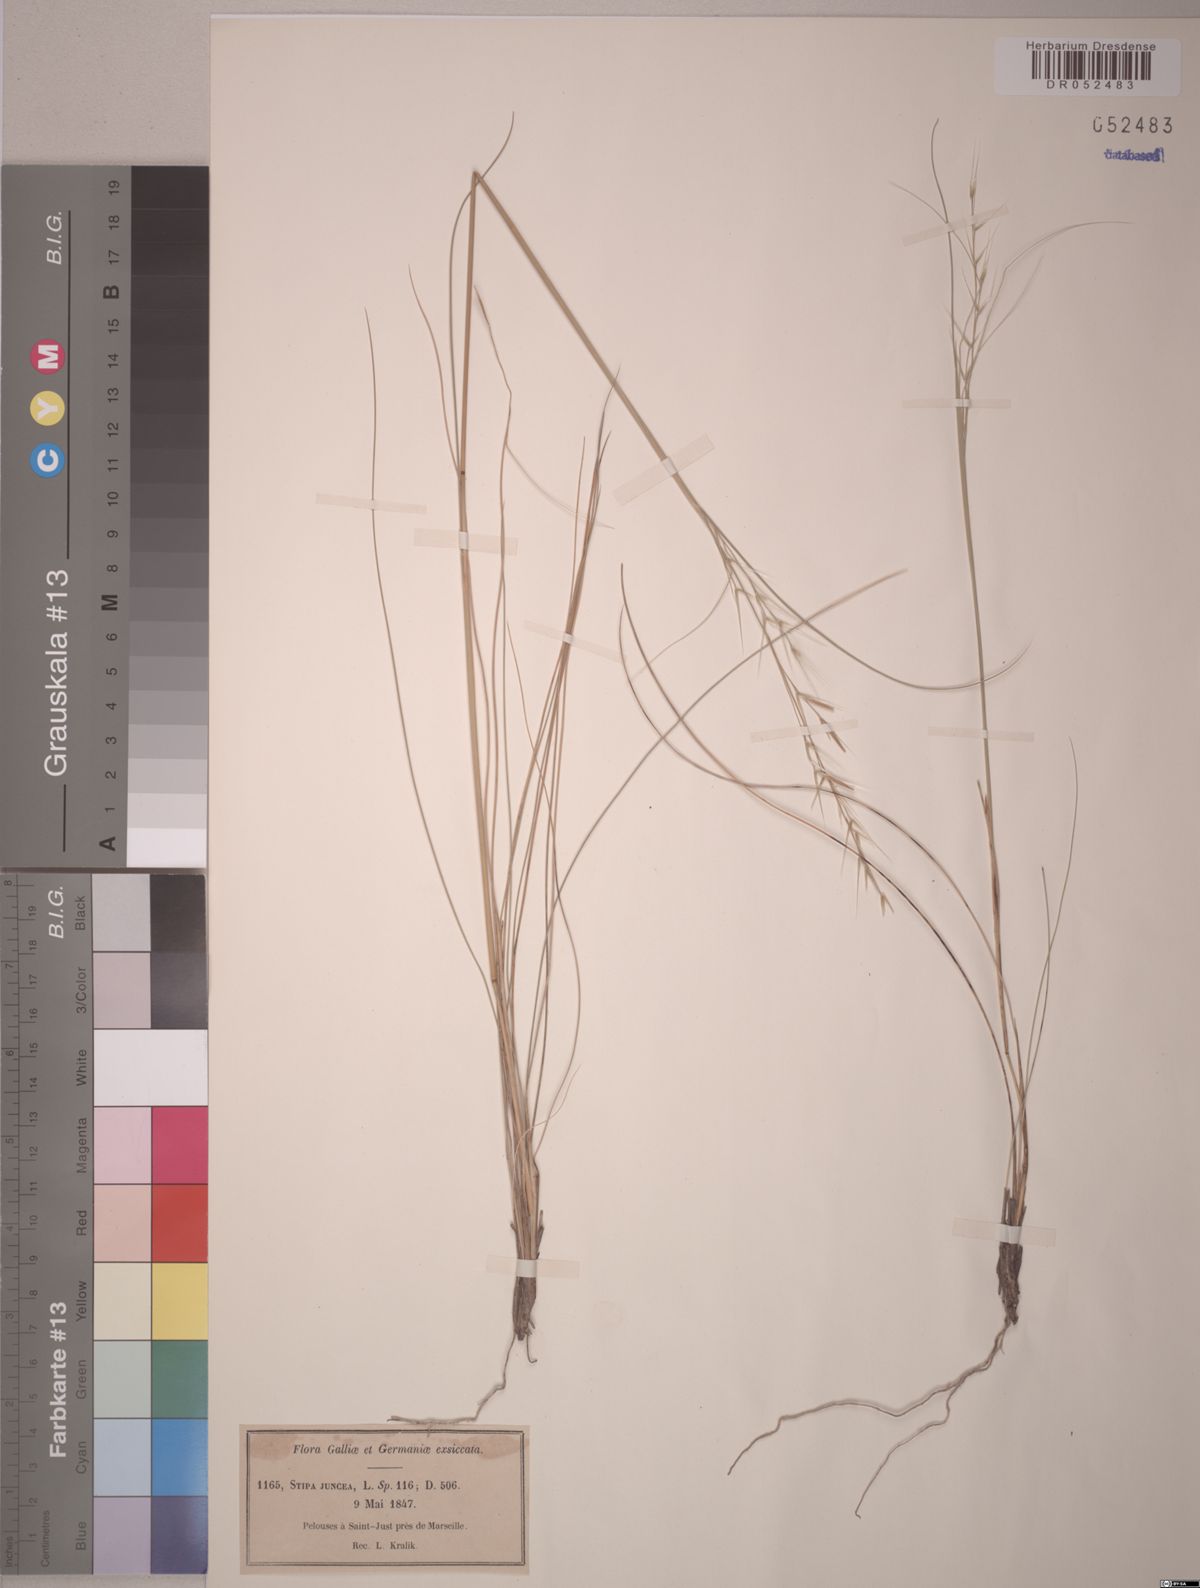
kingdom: Plantae
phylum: Tracheophyta
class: Liliopsida
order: Poales
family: Poaceae
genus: Stipa
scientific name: Stipa juncea
